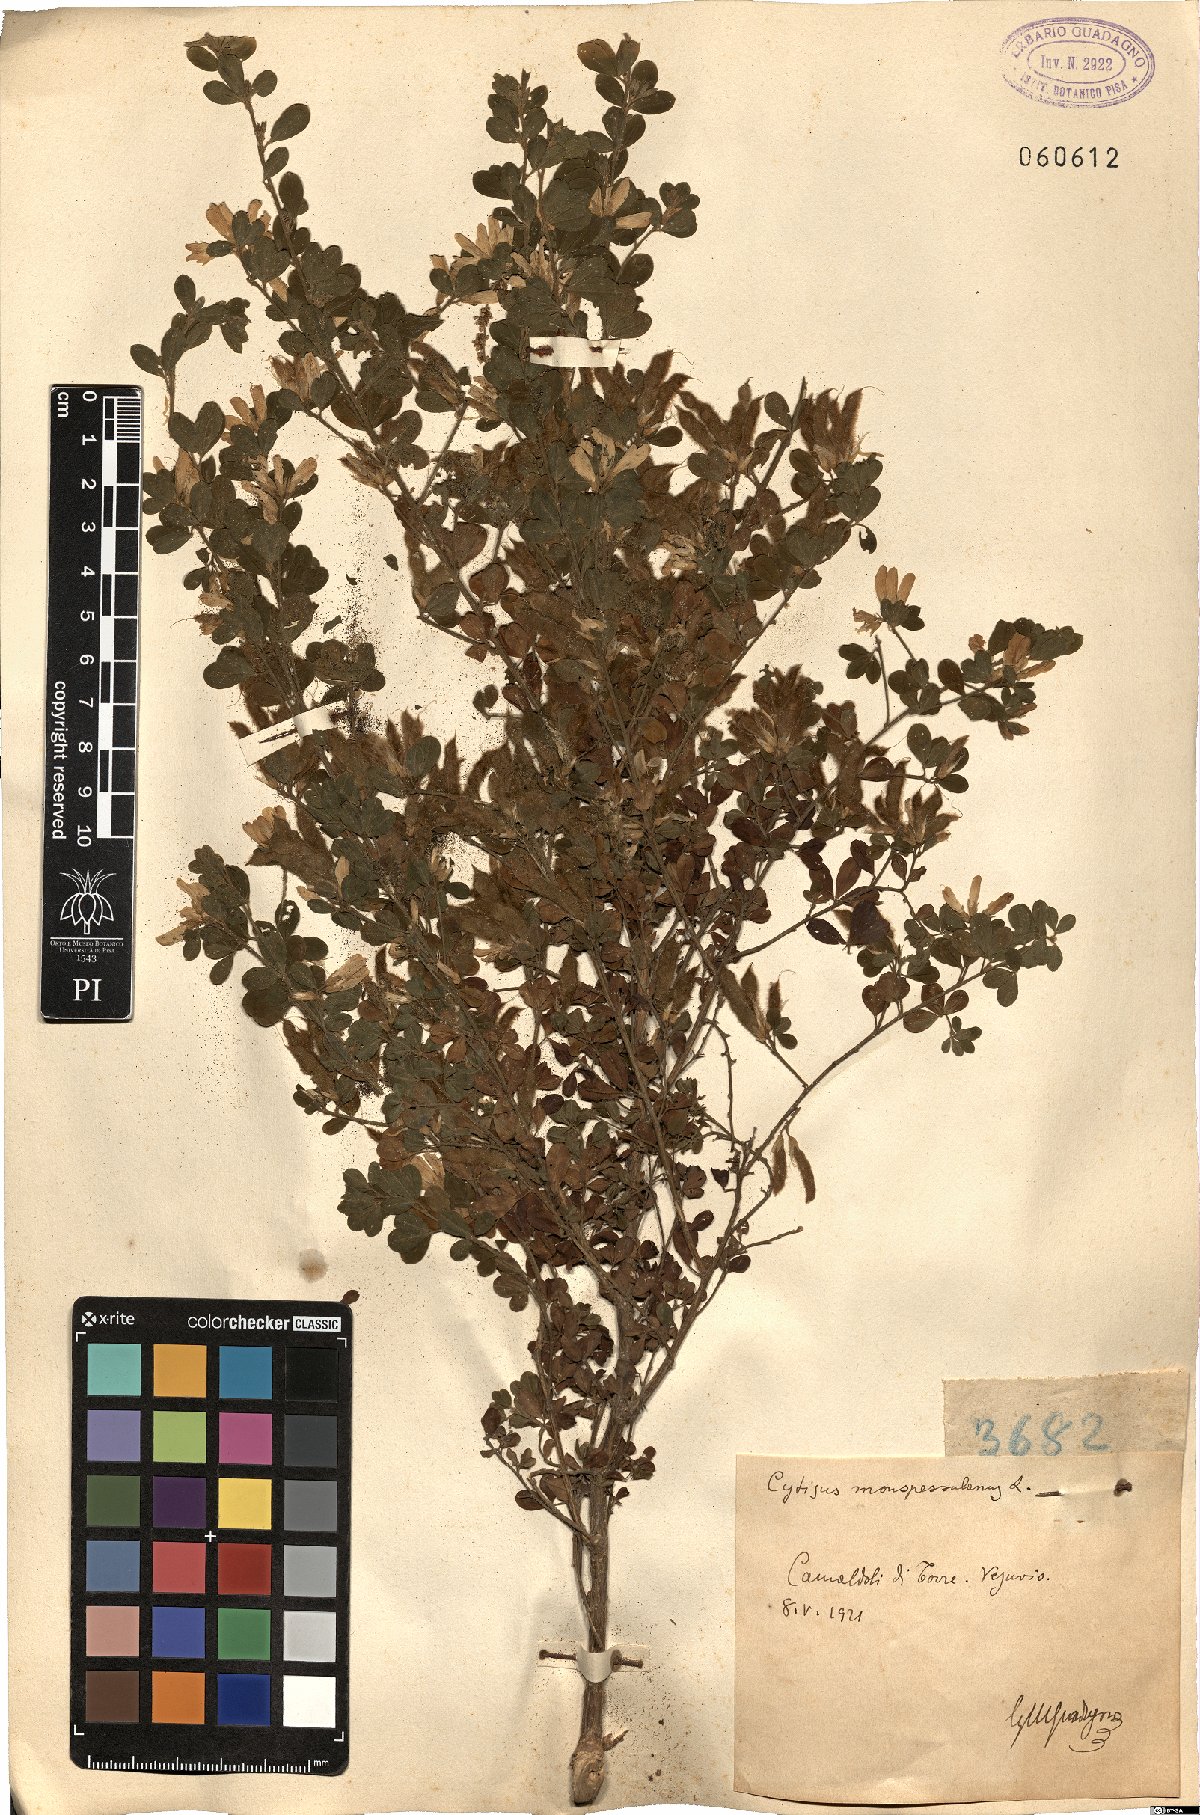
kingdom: Plantae
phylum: Tracheophyta
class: Magnoliopsida
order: Fabales
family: Fabaceae
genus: Genista
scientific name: Genista monspessulana
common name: Montpellier broom
